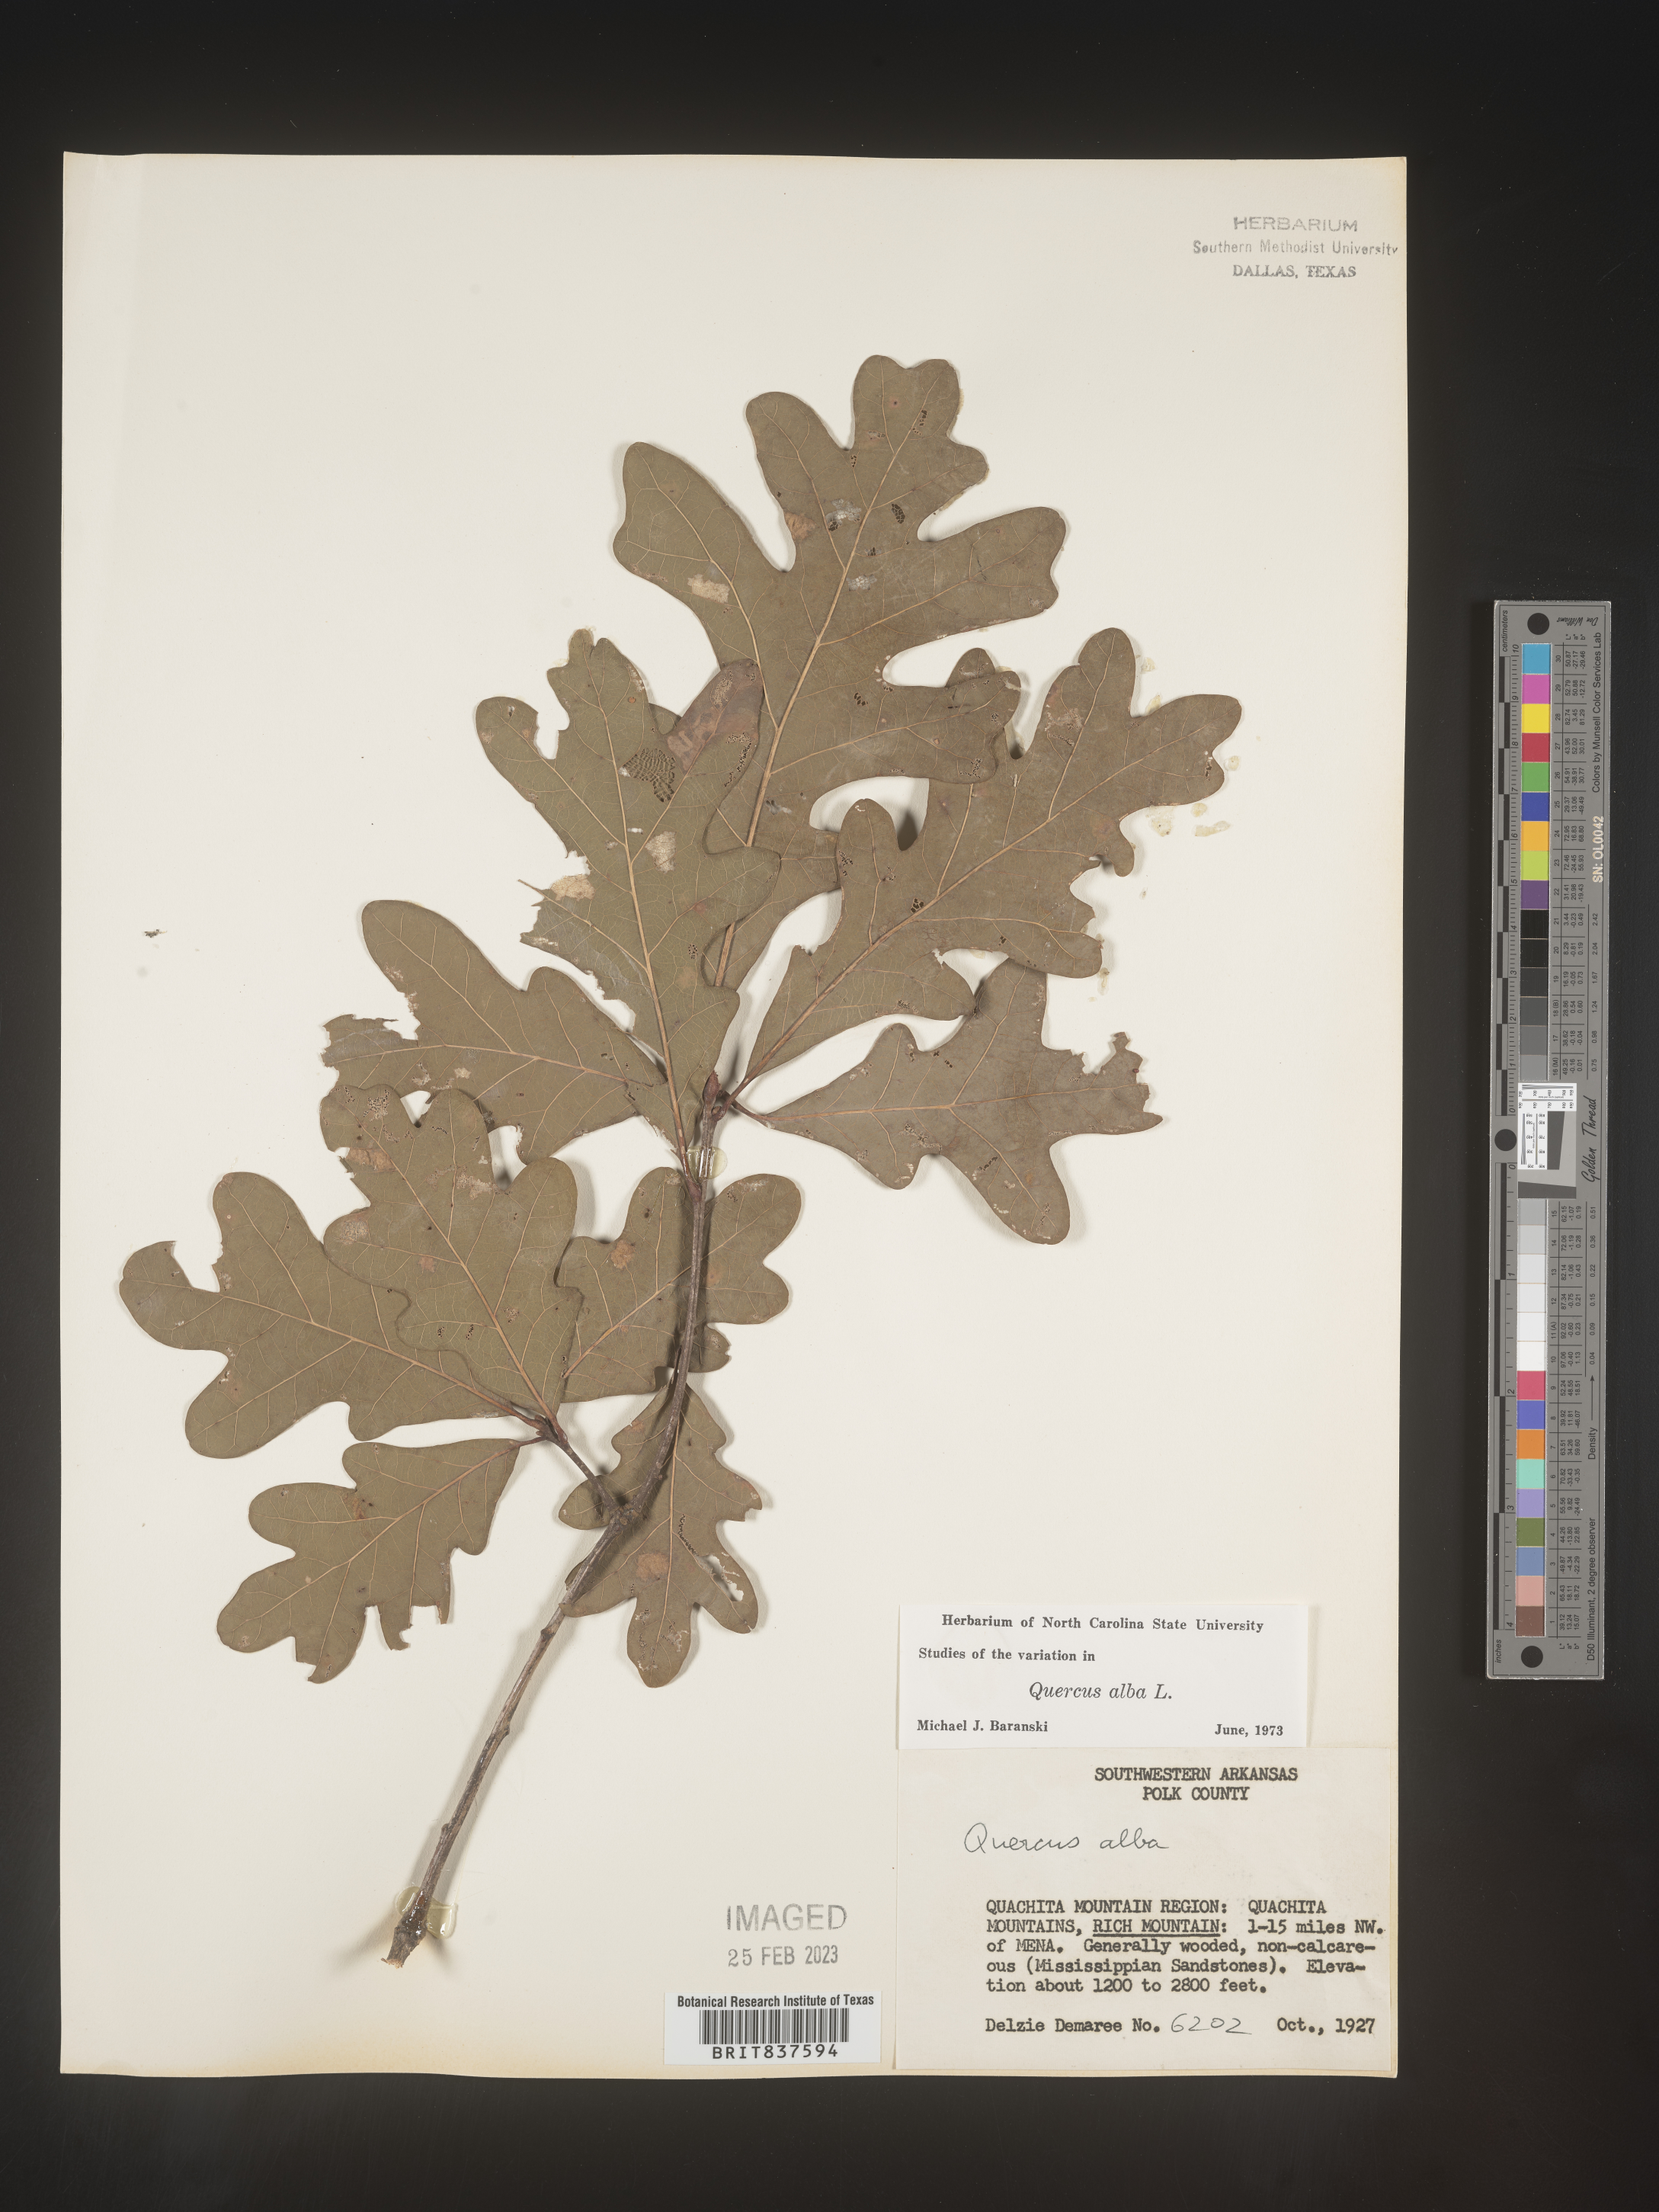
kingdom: Plantae
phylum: Tracheophyta
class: Magnoliopsida
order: Fagales
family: Fagaceae
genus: Quercus
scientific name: Quercus alba
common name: White oak
